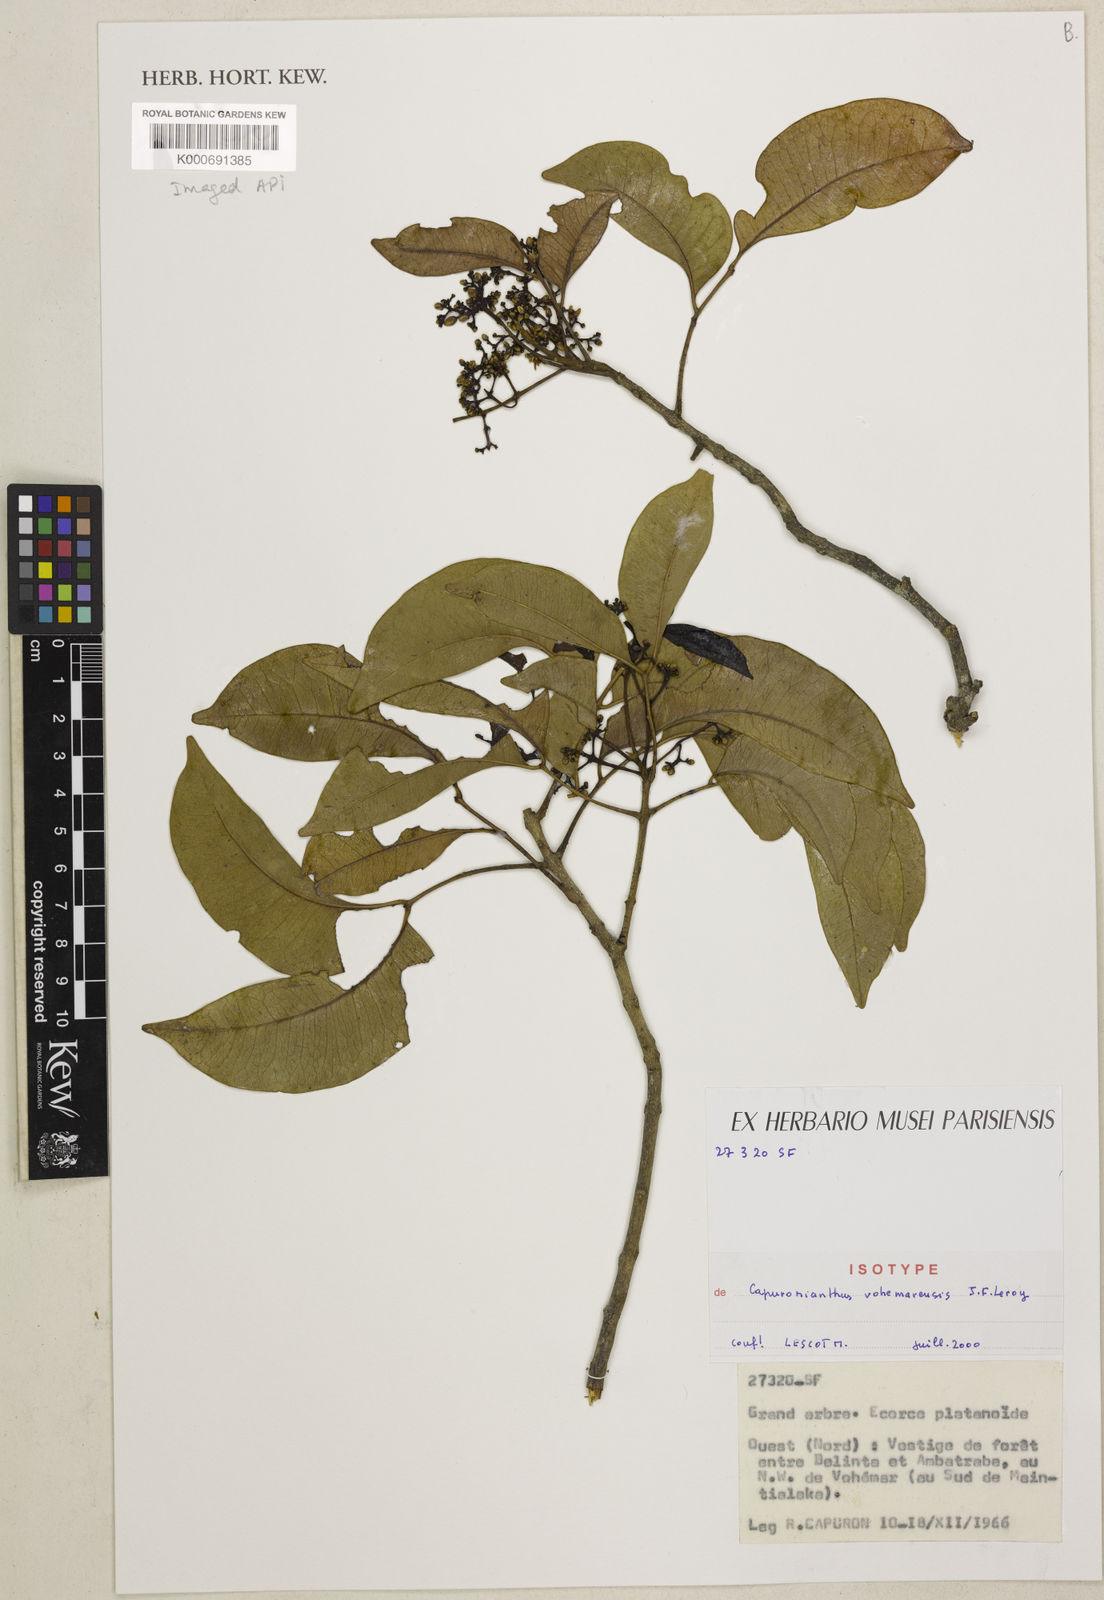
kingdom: Plantae
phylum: Tracheophyta
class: Magnoliopsida
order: Sapindales
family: Meliaceae
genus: Capuronianthus
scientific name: Capuronianthus vohemarensis
